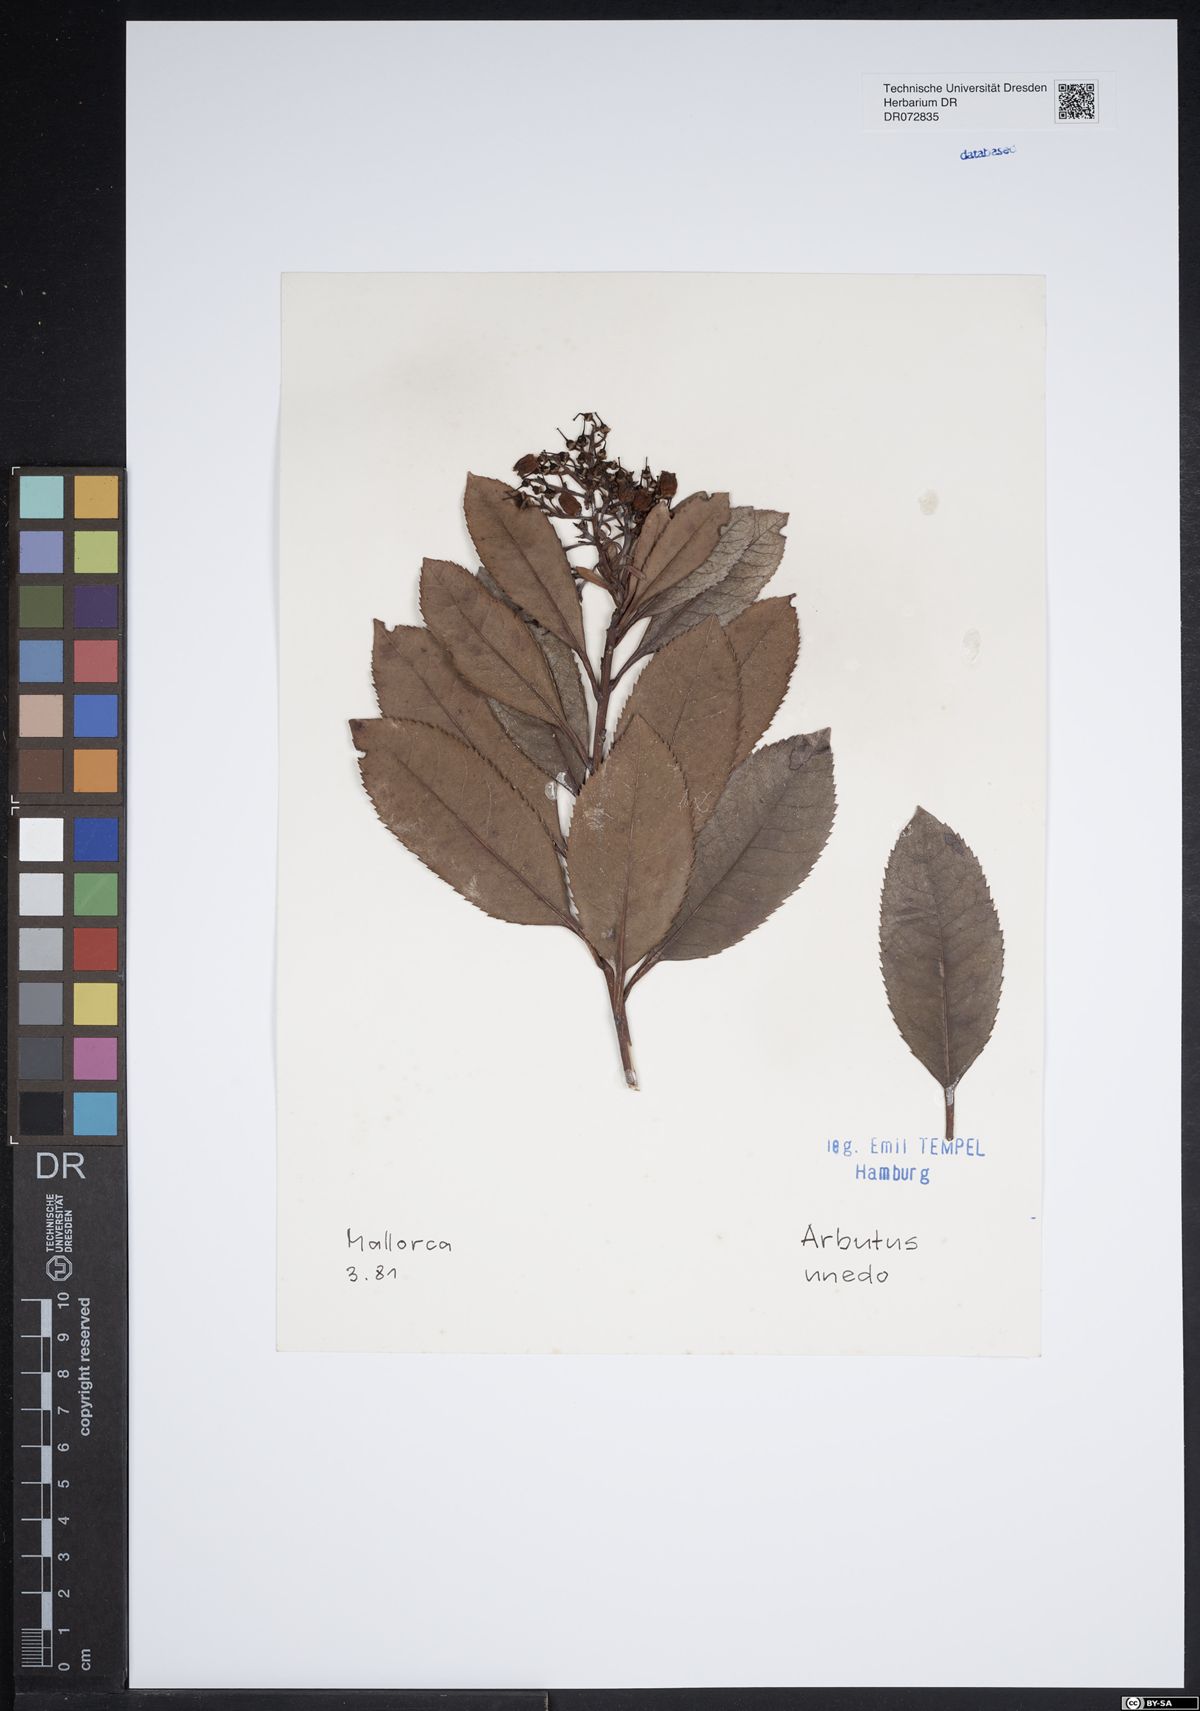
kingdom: Plantae
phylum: Tracheophyta
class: Magnoliopsida
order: Ericales
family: Ericaceae
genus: Arbutus
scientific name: Arbutus unedo
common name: Strawberry-tree
